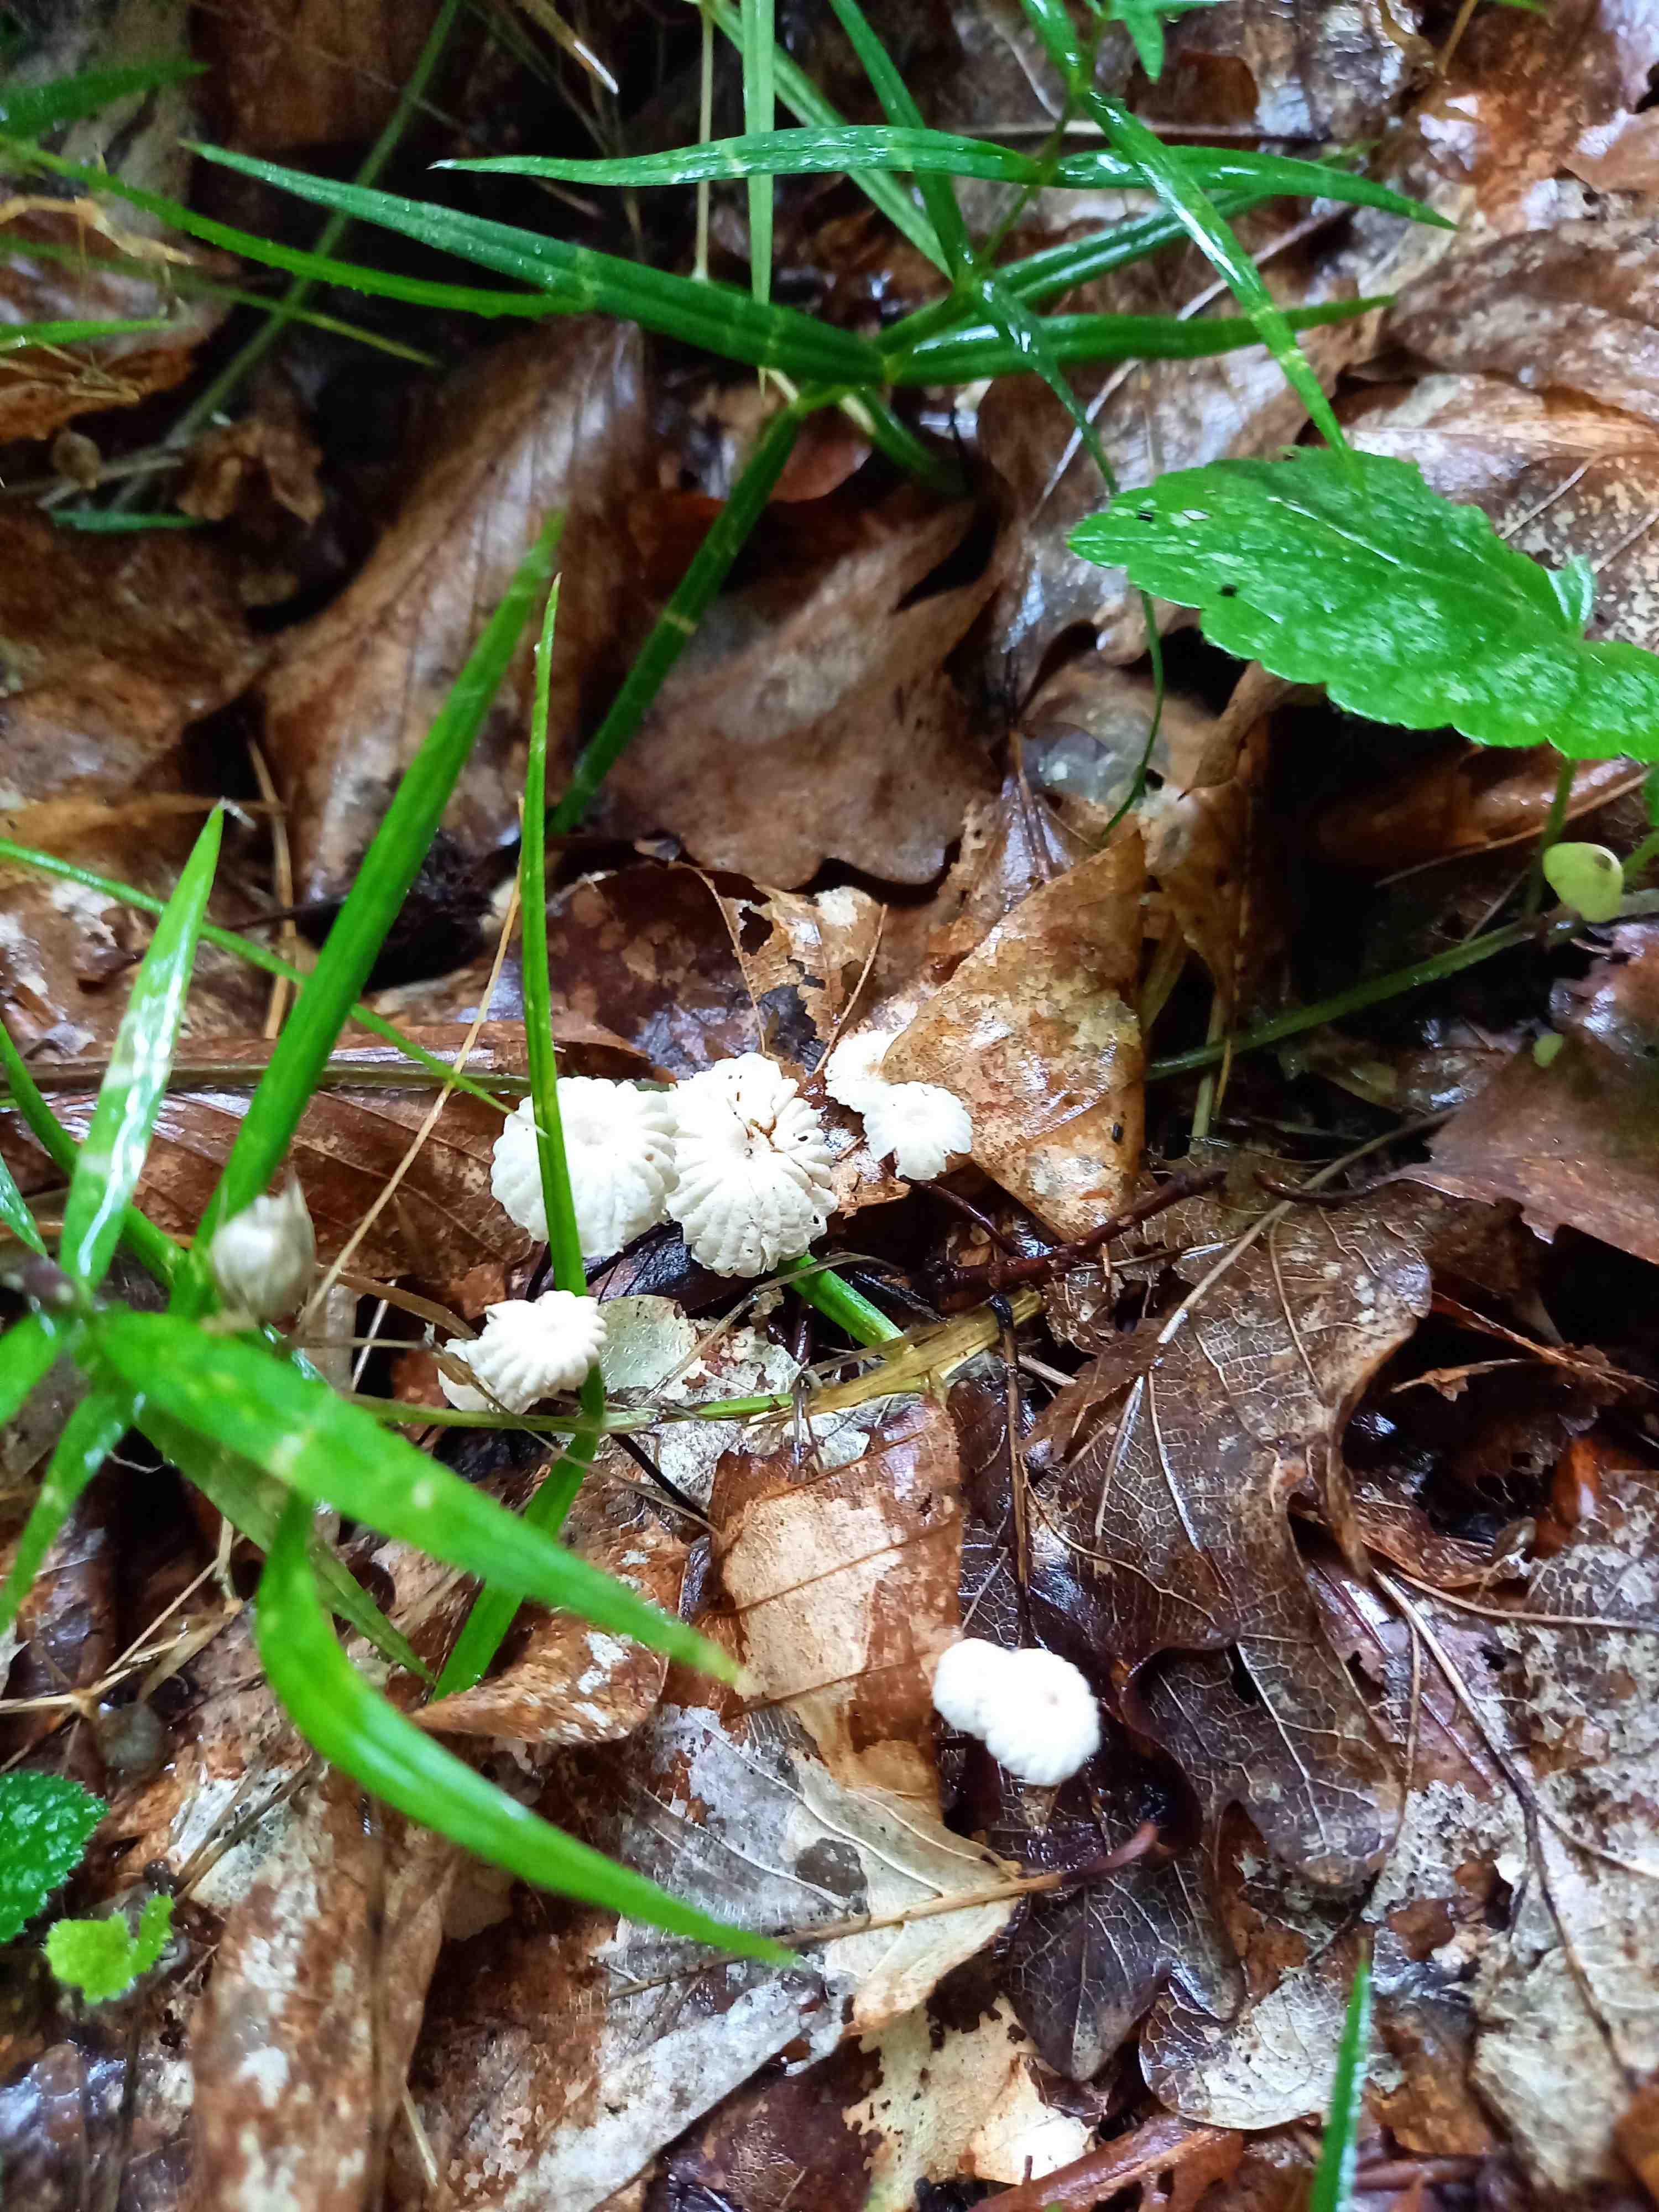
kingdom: Fungi
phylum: Basidiomycota
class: Agaricomycetes
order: Agaricales
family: Marasmiaceae
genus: Marasmius
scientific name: Marasmius rotula
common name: hjul-bruskhat
